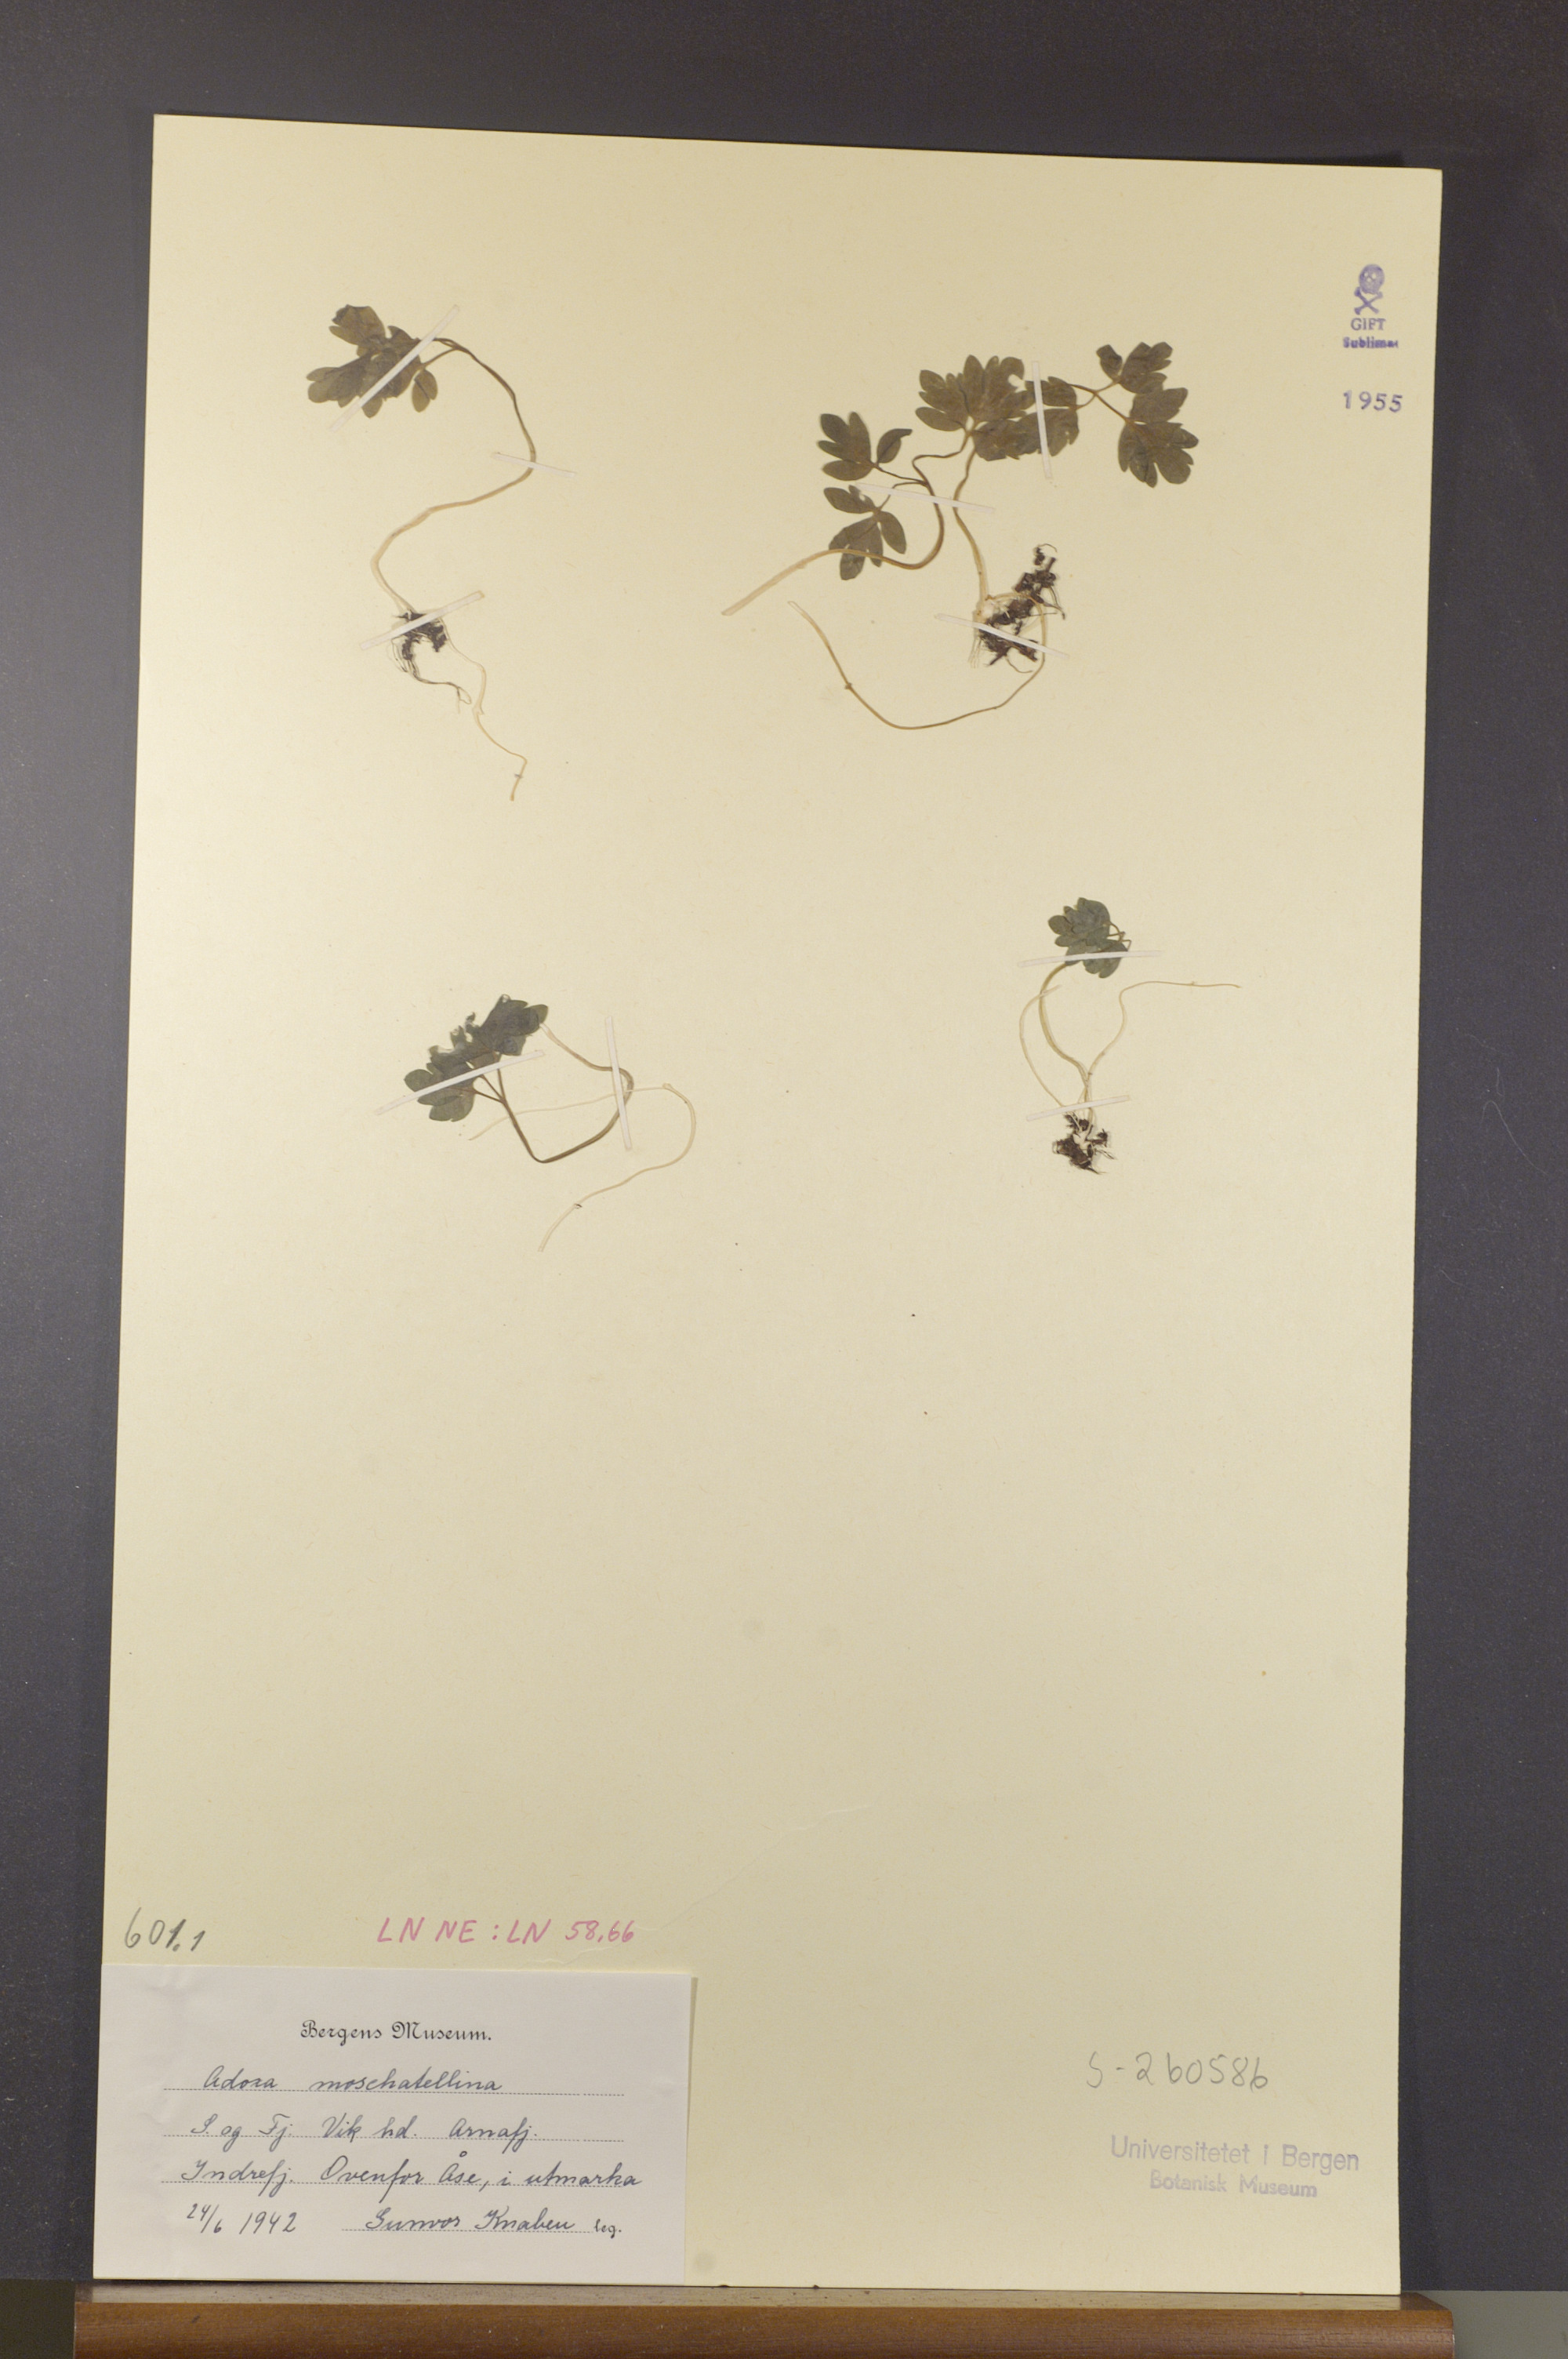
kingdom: Plantae
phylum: Tracheophyta
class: Magnoliopsida
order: Dipsacales
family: Viburnaceae
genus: Adoxa
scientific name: Adoxa moschatellina
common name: Moschatel
